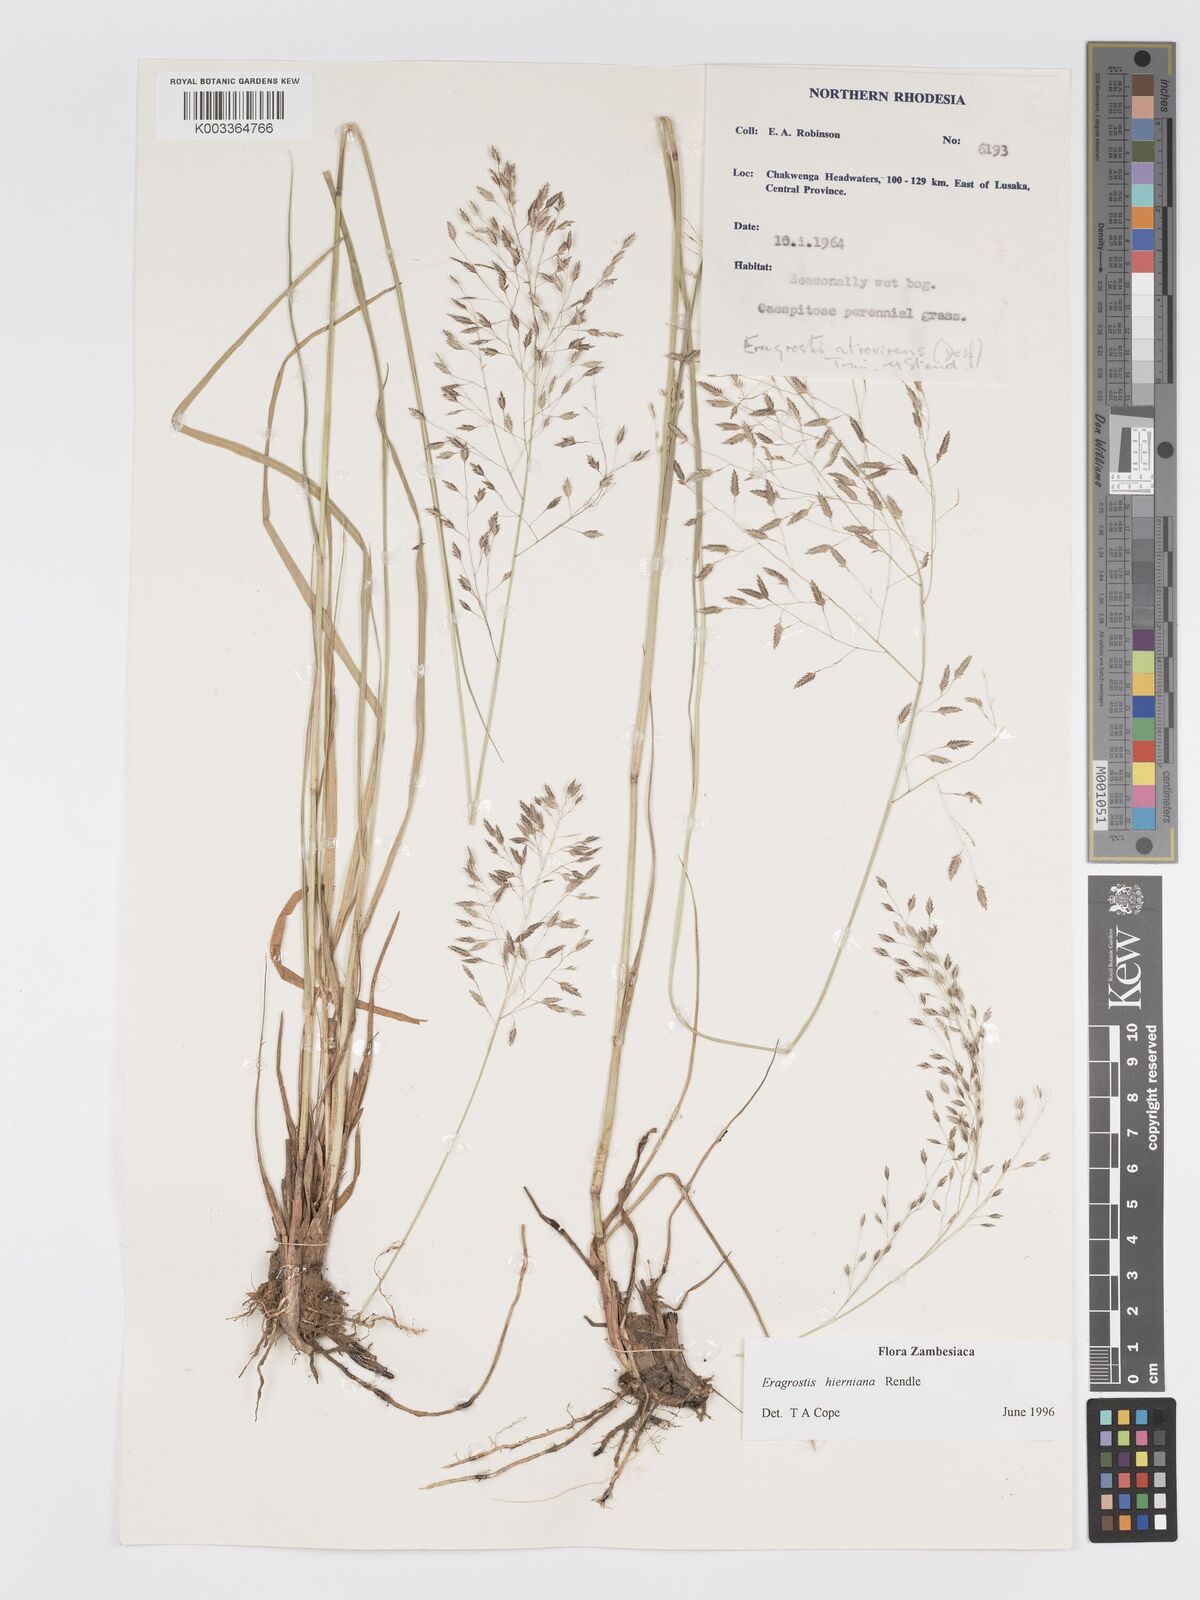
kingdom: Plantae
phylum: Tracheophyta
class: Liliopsida
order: Poales
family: Poaceae
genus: Eragrostis
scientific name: Eragrostis hierniana
